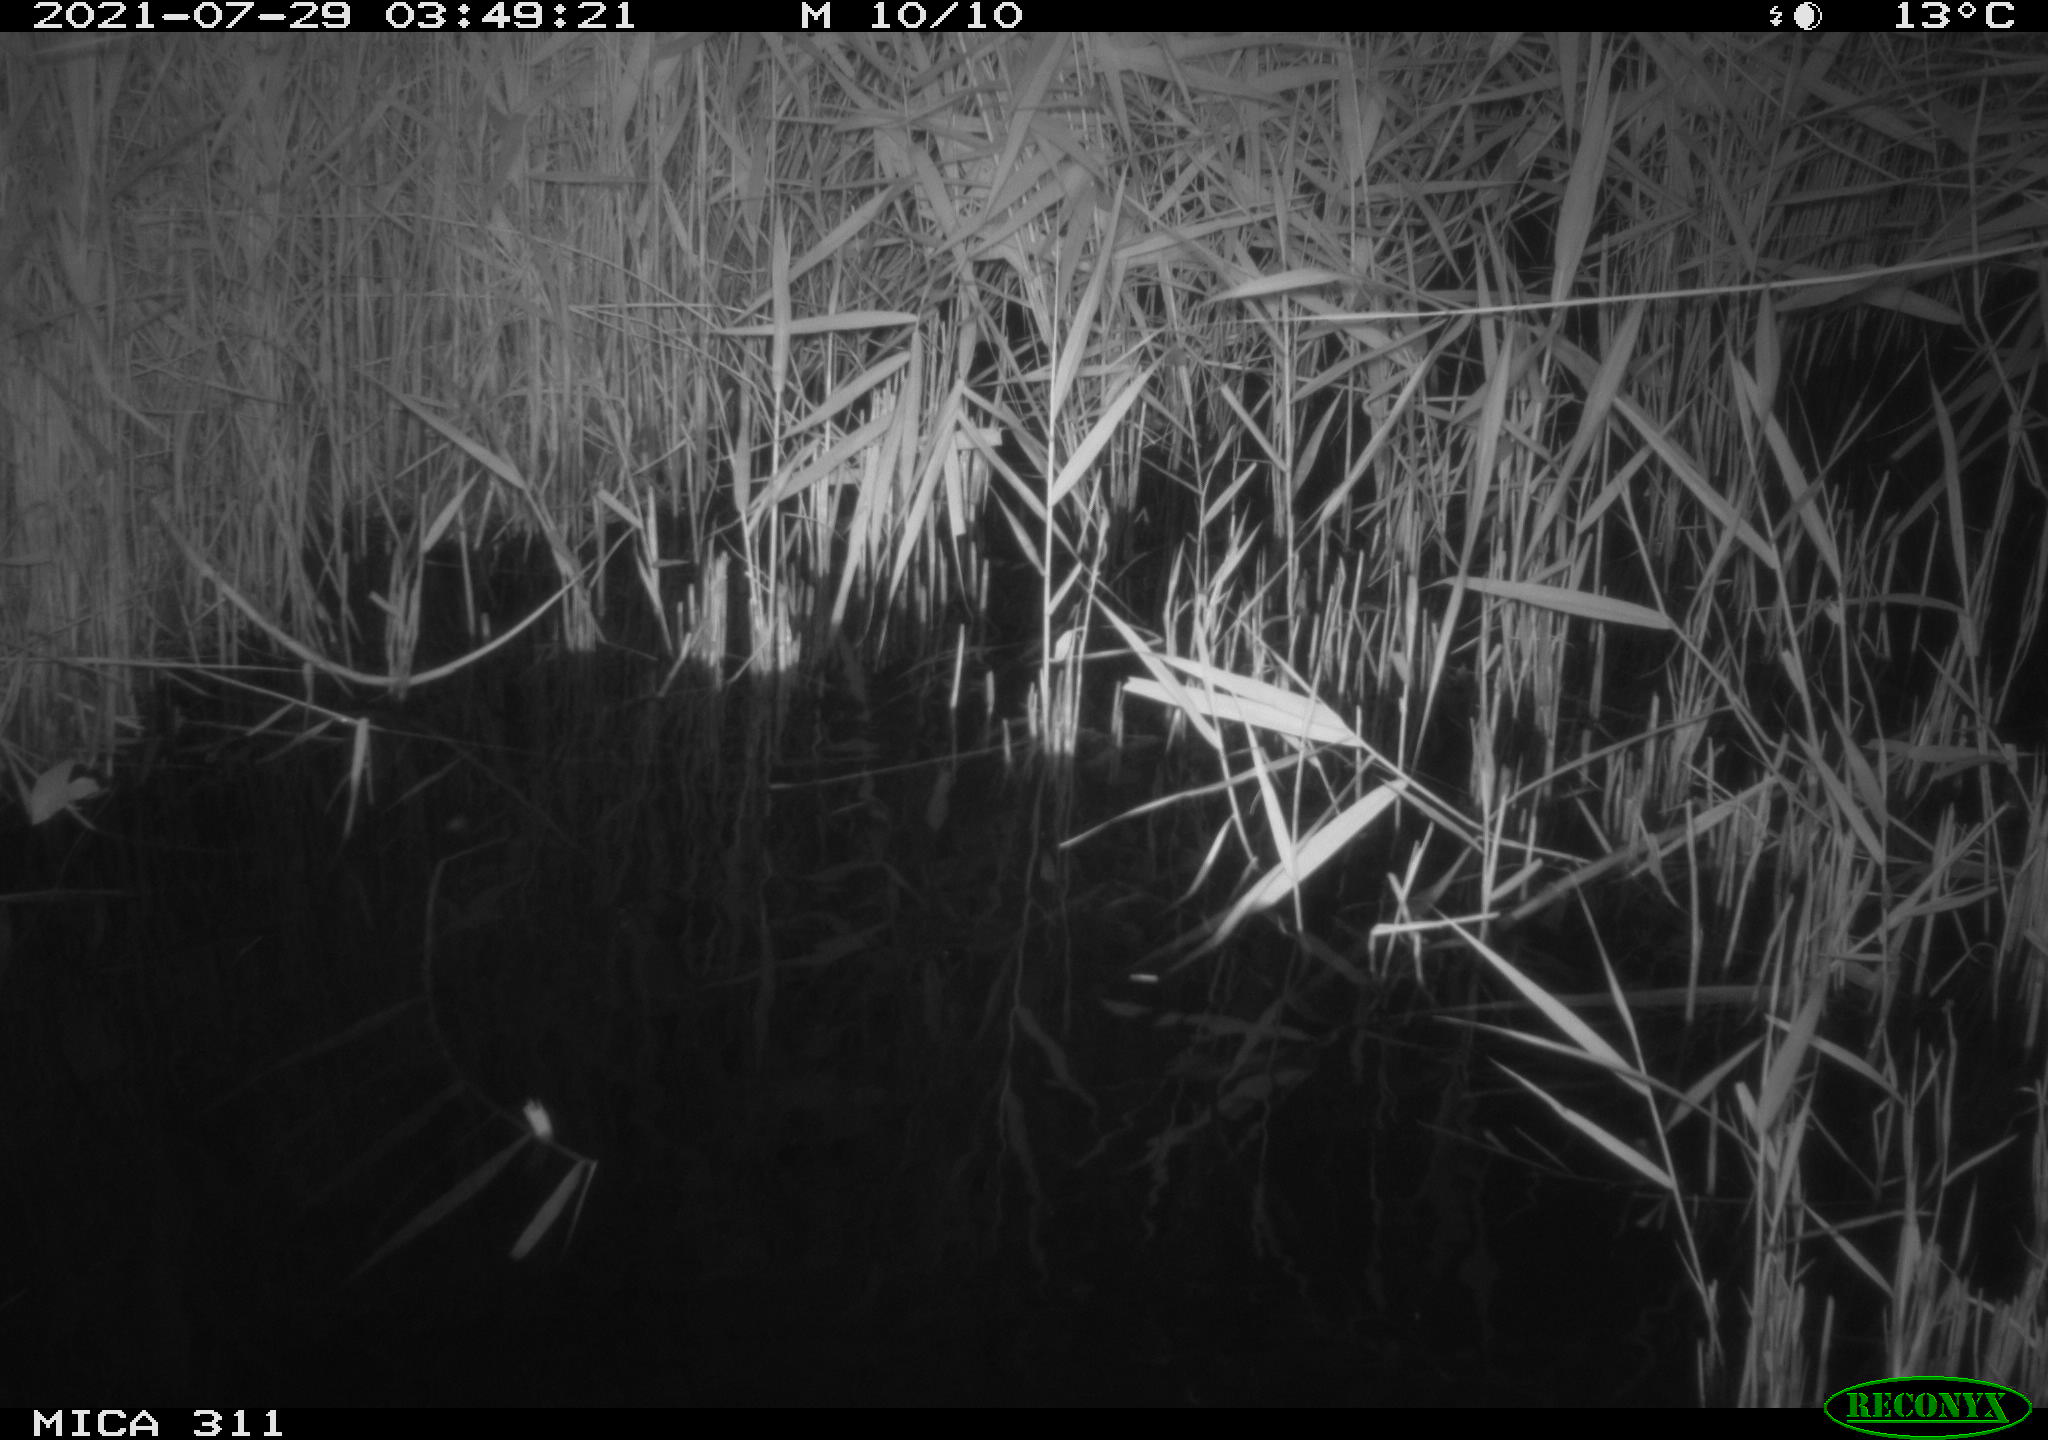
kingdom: Animalia
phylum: Chordata
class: Mammalia
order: Rodentia
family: Muridae
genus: Rattus
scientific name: Rattus norvegicus
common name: Brown rat
